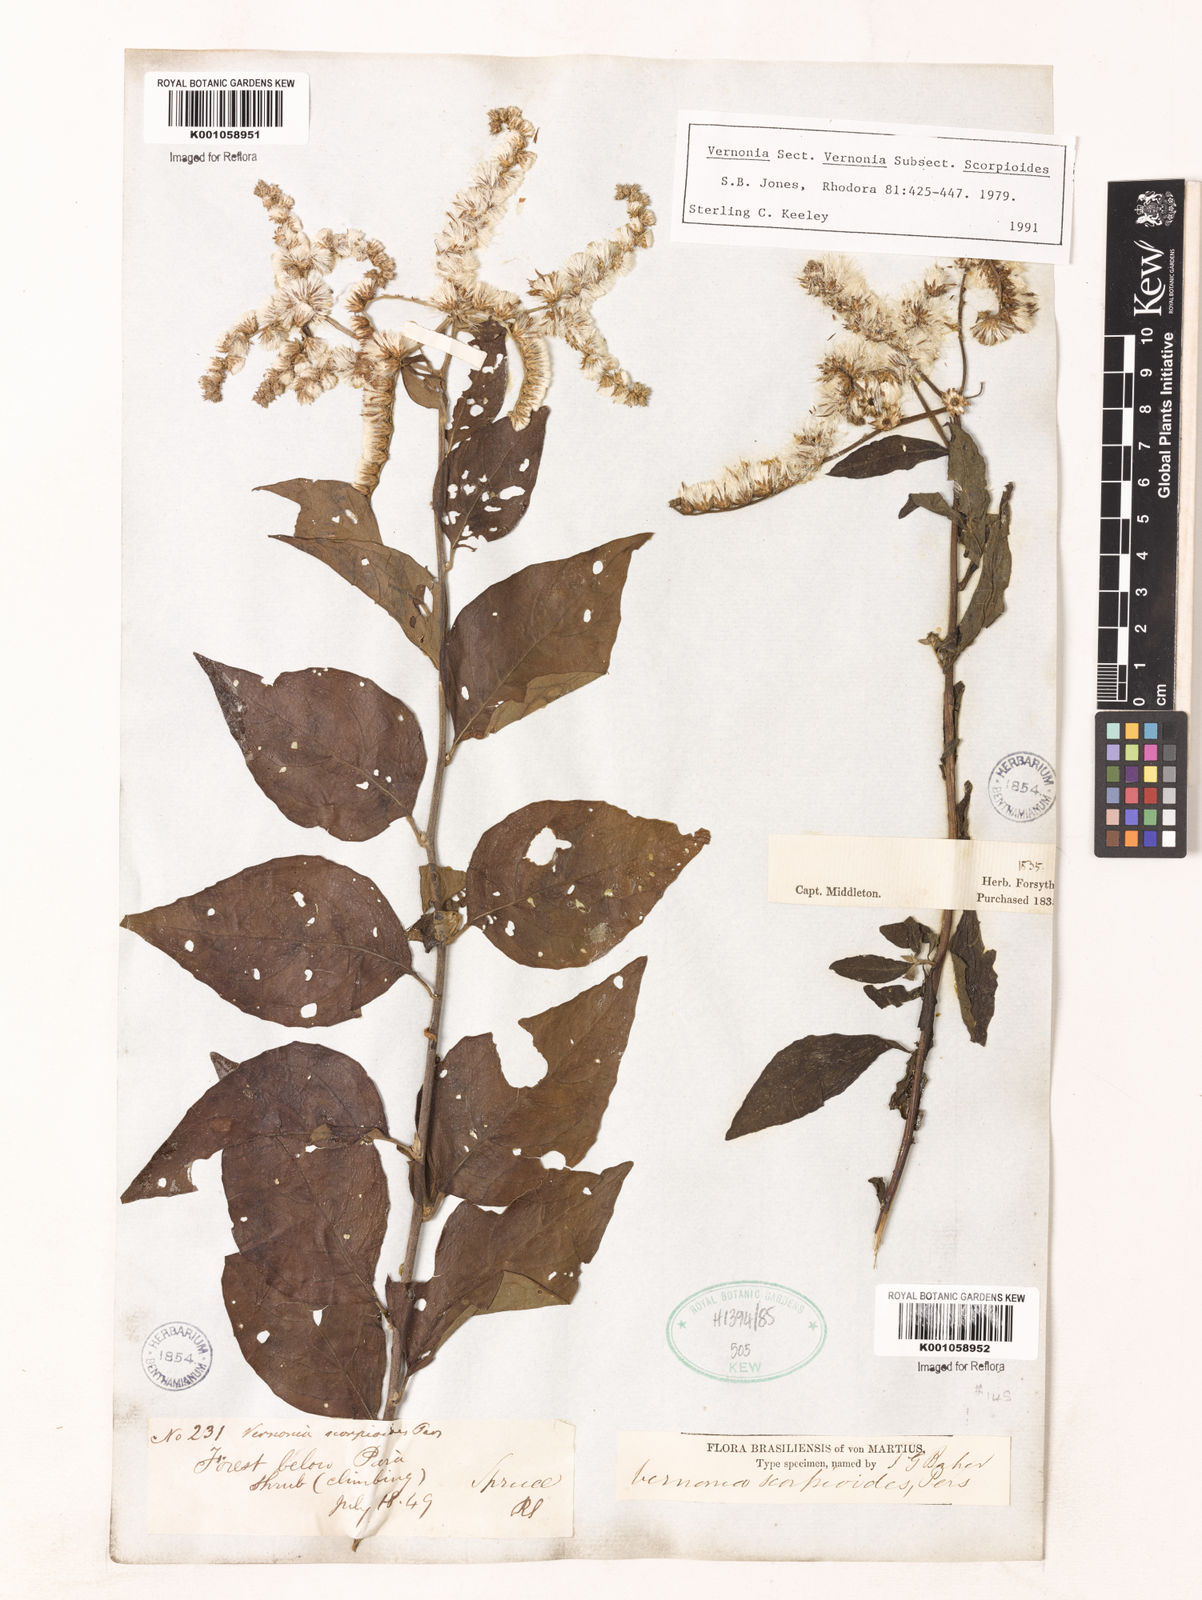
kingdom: Plantae
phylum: Tracheophyta
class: Magnoliopsida
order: Asterales
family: Asteraceae
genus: Cyrtocymura
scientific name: Cyrtocymura scorpioides
